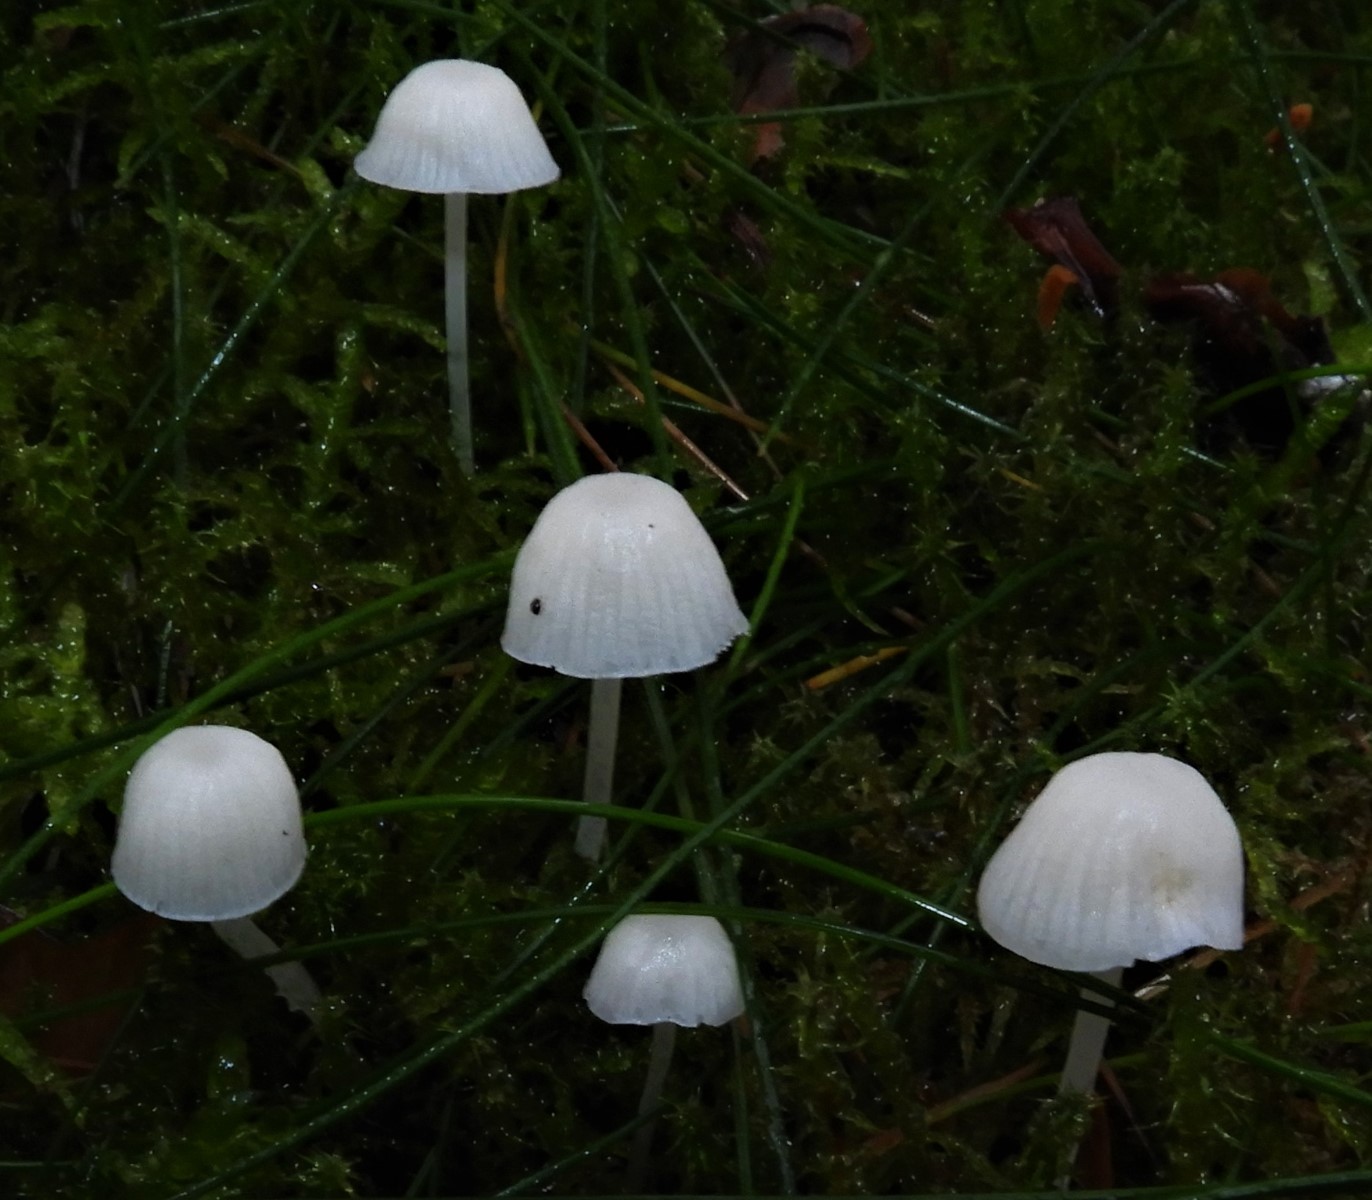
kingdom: Fungi
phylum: Basidiomycota
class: Agaricomycetes
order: Agaricales
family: Mycenaceae
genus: Hemimycena
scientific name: Hemimycena
